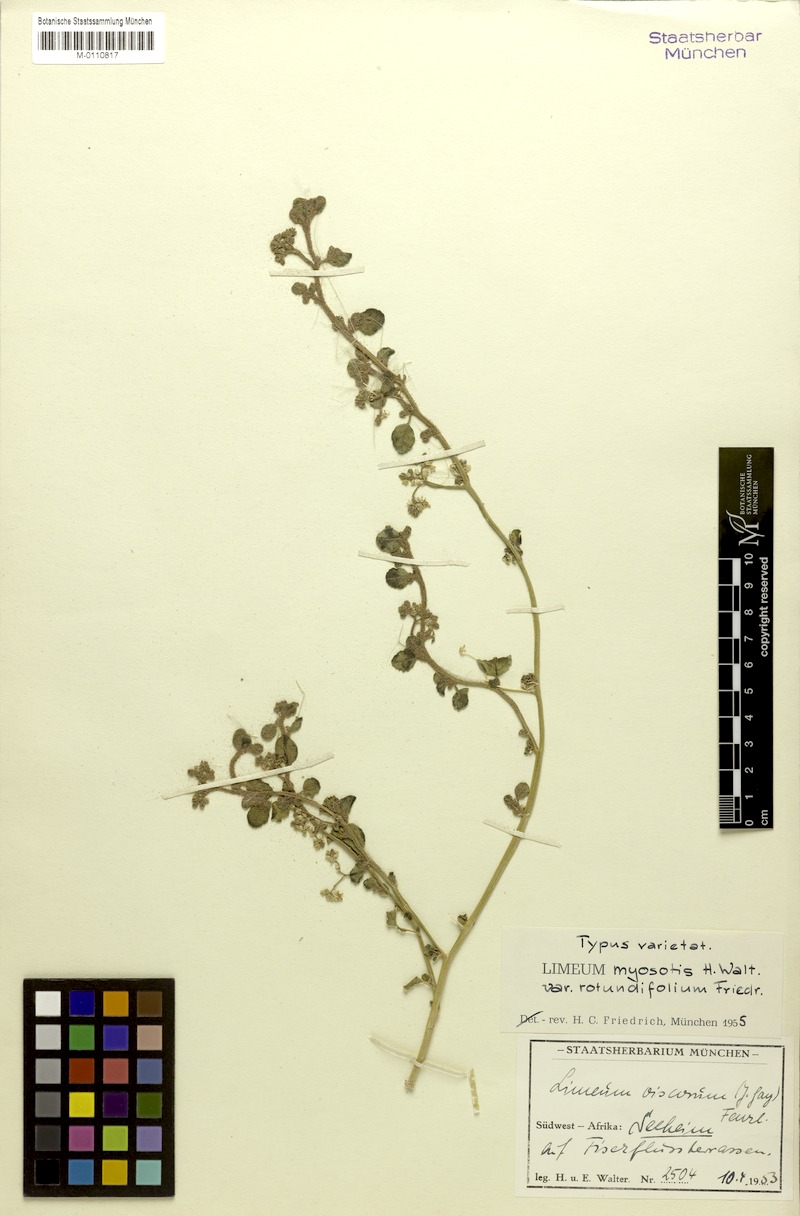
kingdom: Plantae
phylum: Tracheophyta
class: Magnoliopsida
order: Caryophyllales
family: Limeaceae
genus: Limeum
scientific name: Limeum myosotis
